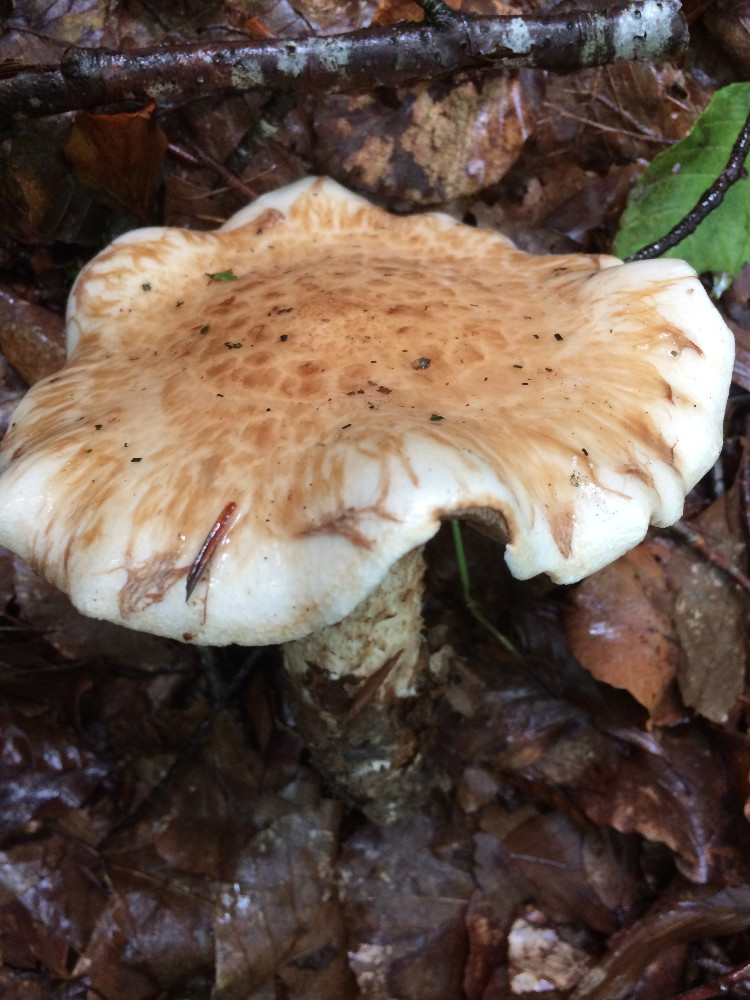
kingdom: Fungi
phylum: Basidiomycota
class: Agaricomycetes
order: Agaricales
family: Hymenogastraceae
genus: Hebeloma
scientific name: Hebeloma radicosum
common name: pælerods-tåreblad
